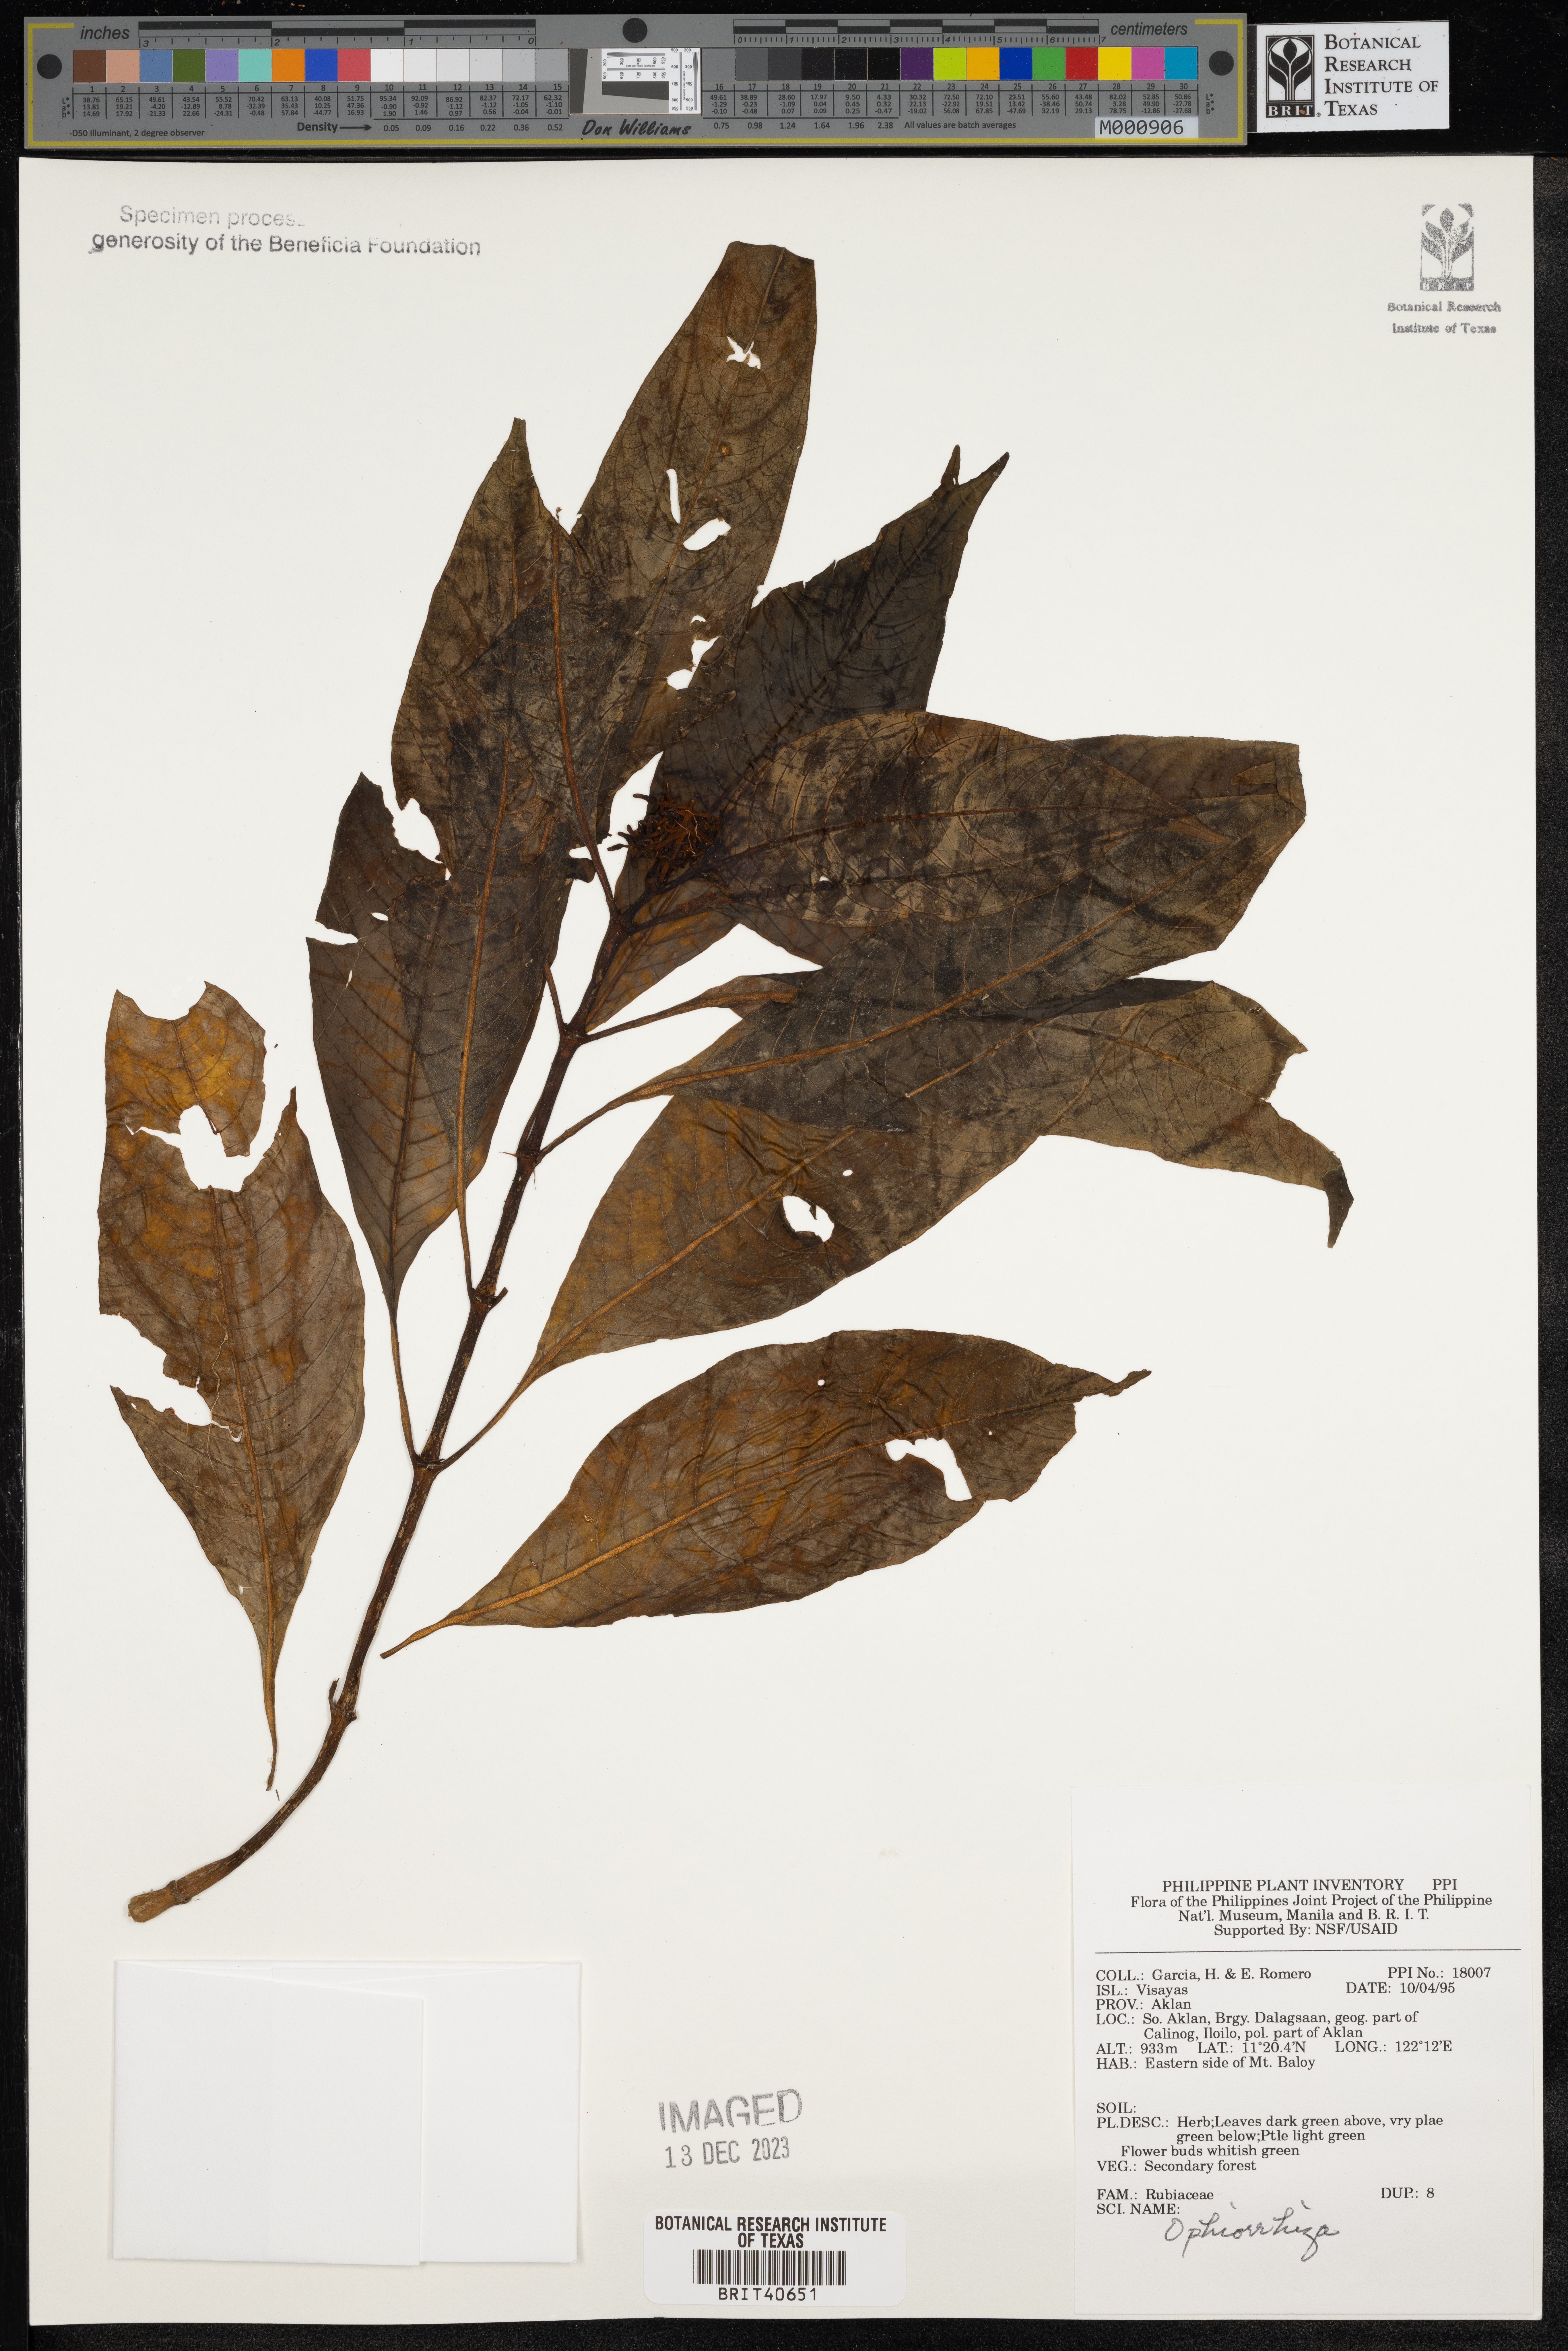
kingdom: Plantae
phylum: Tracheophyta
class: Magnoliopsida
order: Gentianales
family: Rubiaceae
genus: Ophiorrhiza
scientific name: Ophiorrhiza
